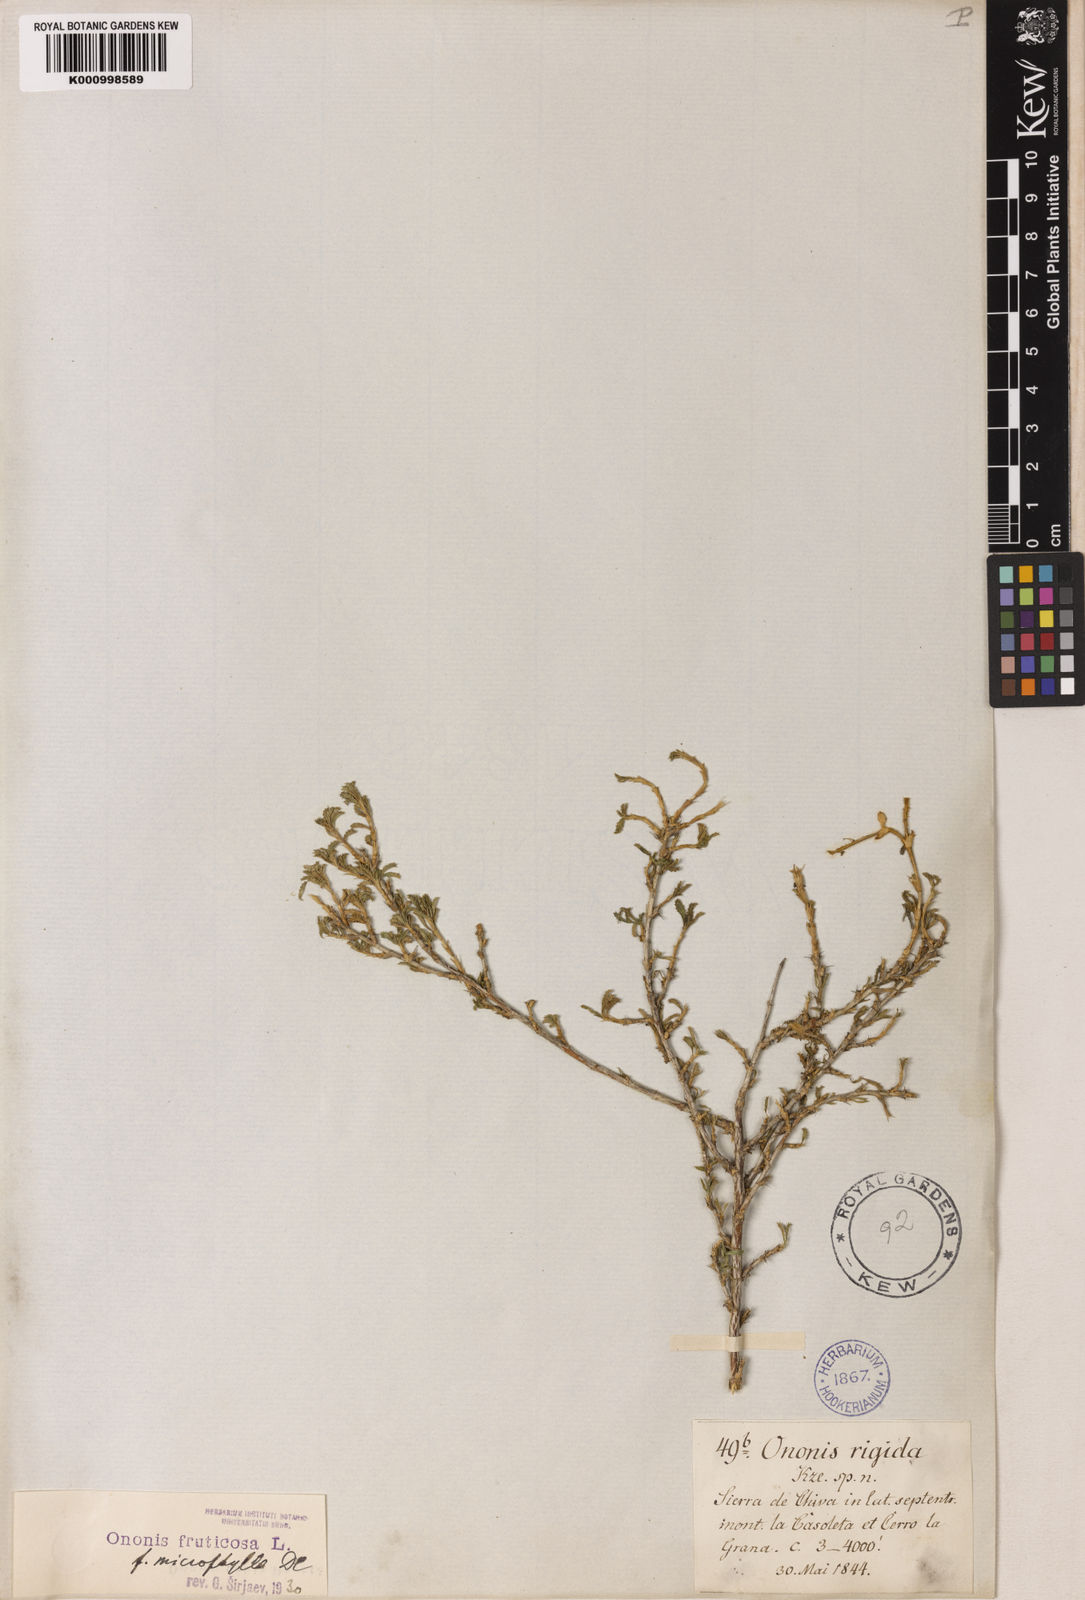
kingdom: Plantae
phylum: Tracheophyta
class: Magnoliopsida
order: Fabales
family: Fabaceae
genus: Ononis
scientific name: Ononis fruticosa
